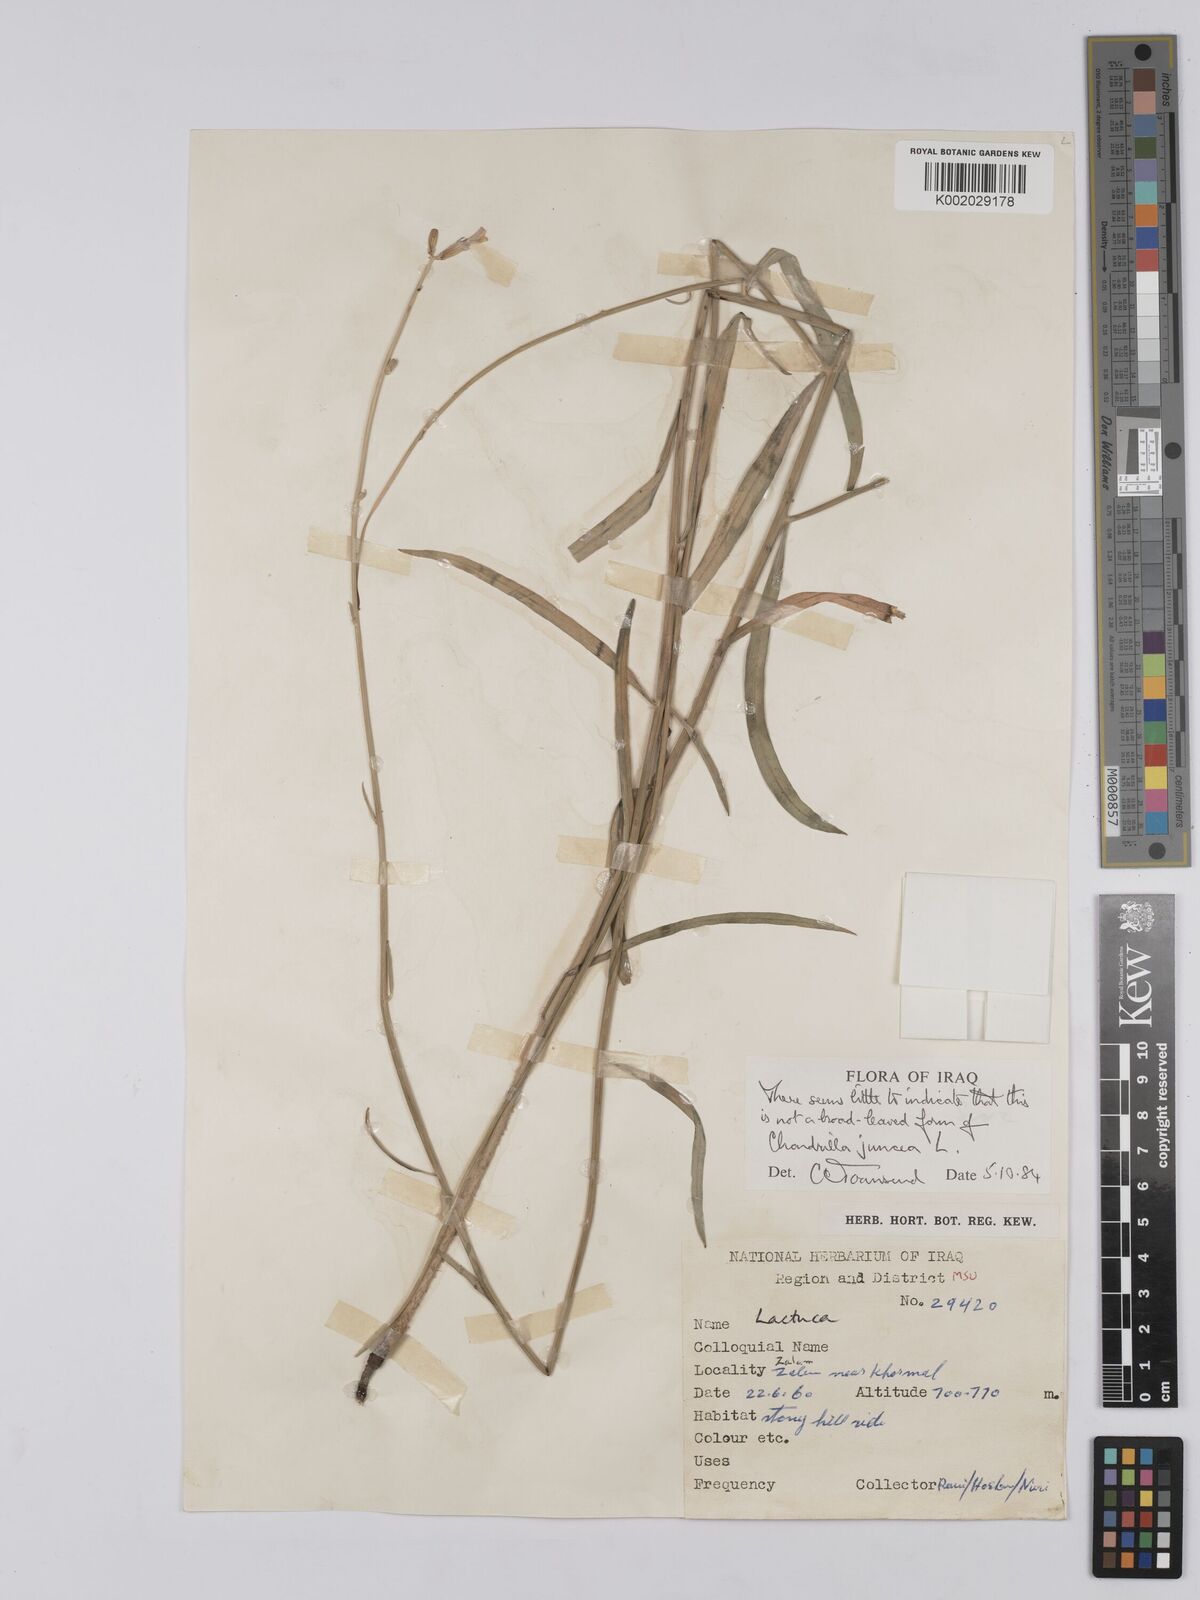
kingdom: Plantae
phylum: Tracheophyta
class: Magnoliopsida
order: Asterales
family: Asteraceae
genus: Chondrilla
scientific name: Chondrilla juncea
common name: Skeleton weed
